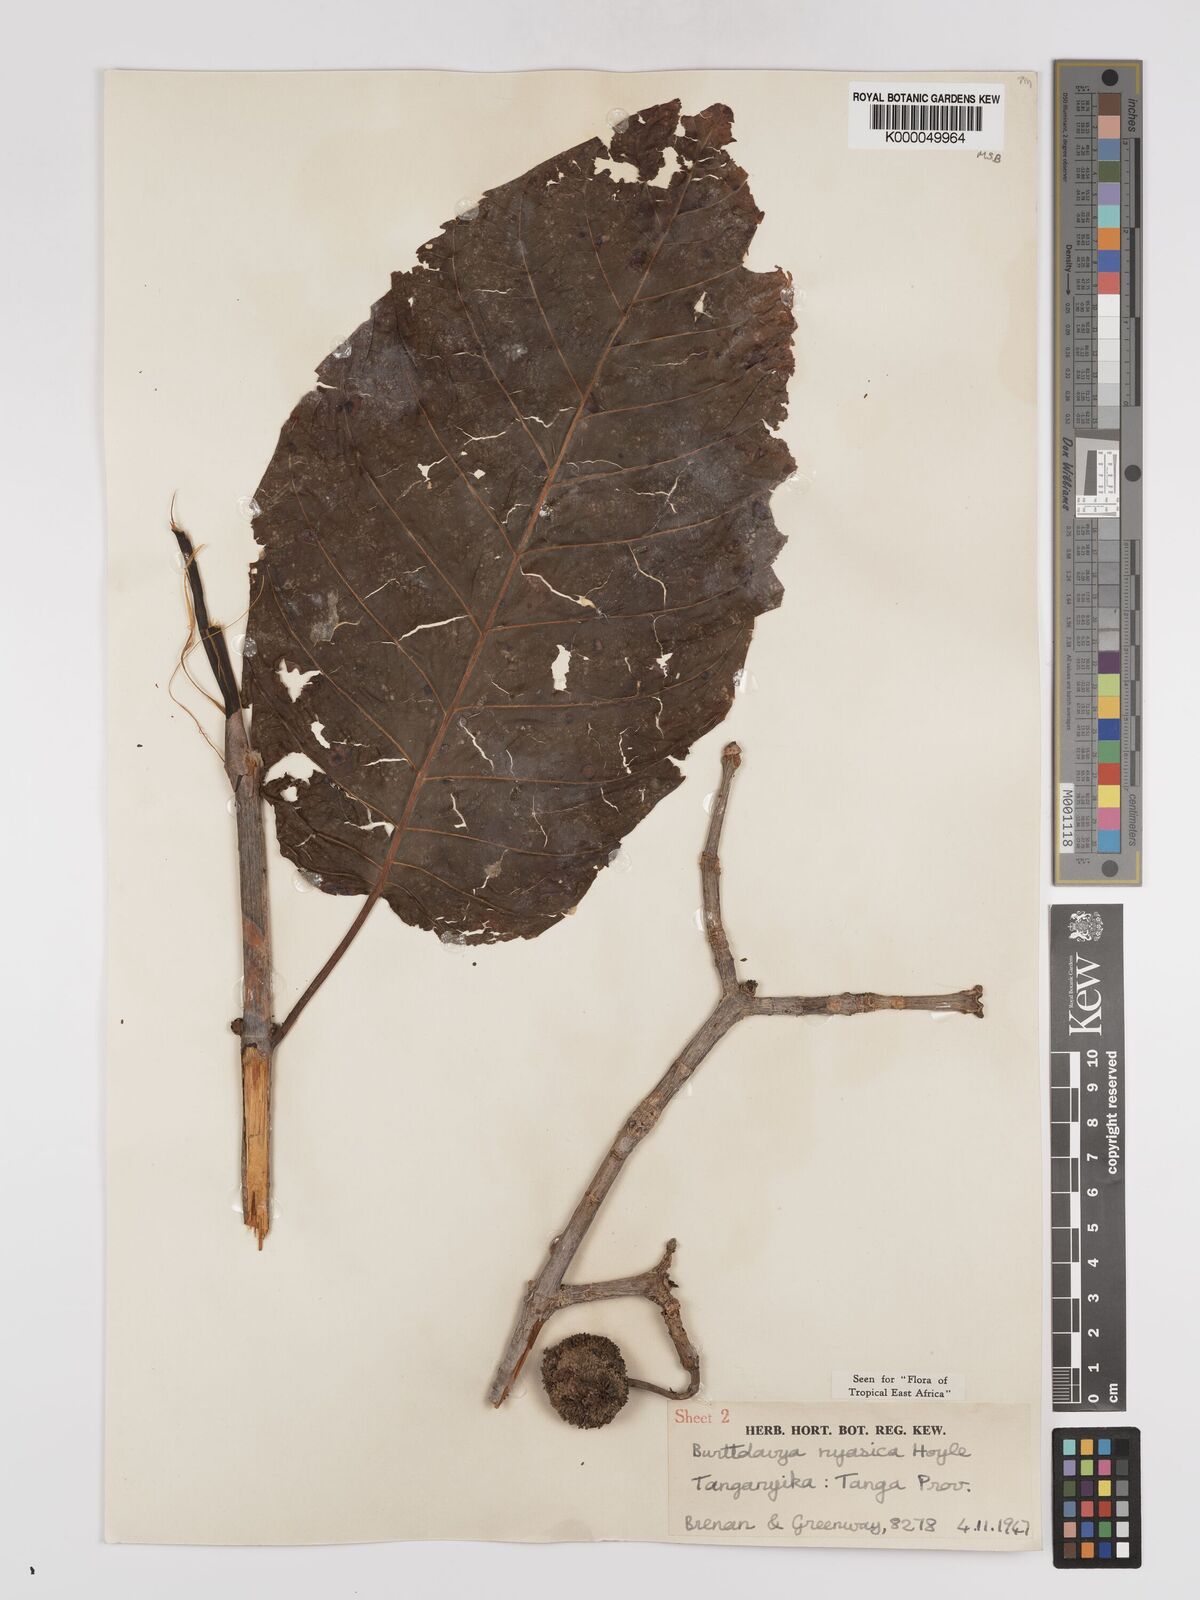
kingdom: Plantae
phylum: Tracheophyta
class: Magnoliopsida
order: Gentianales
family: Rubiaceae
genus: Nauclea
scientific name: Nauclea nyasica
